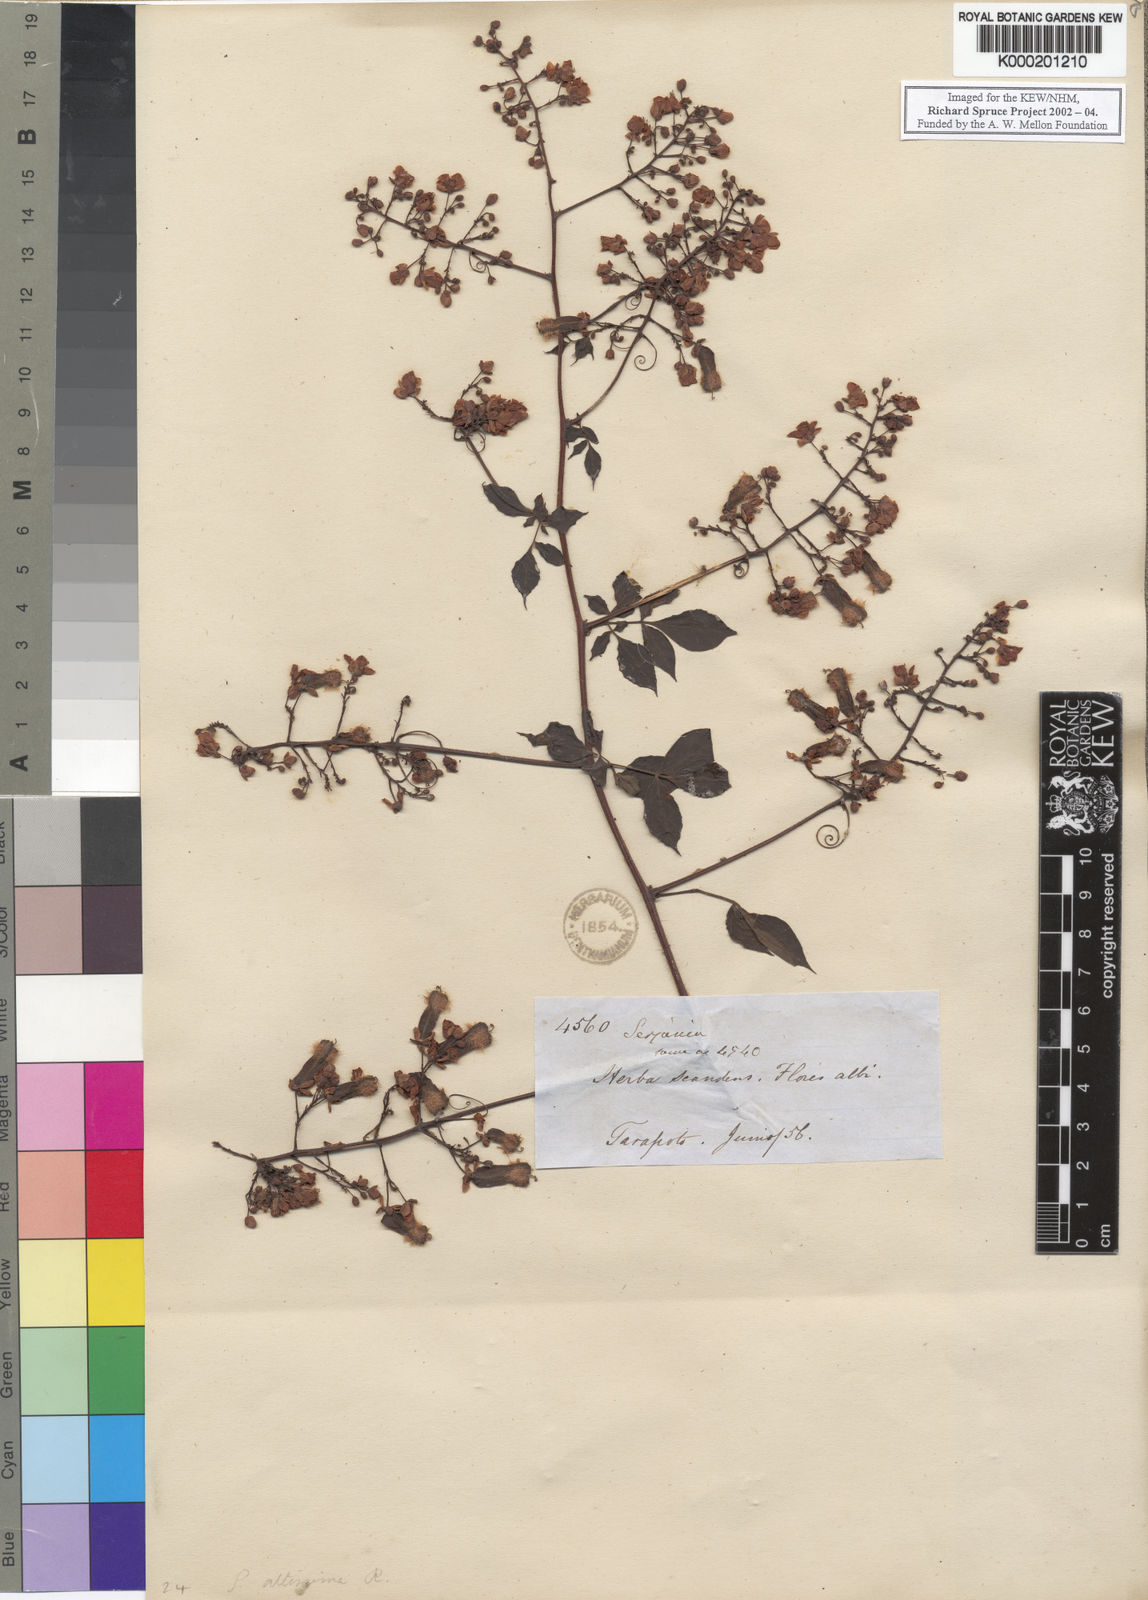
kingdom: Plantae
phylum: Tracheophyta
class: Magnoliopsida
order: Sapindales
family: Sapindaceae
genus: Serjania
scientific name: Serjania altissima
